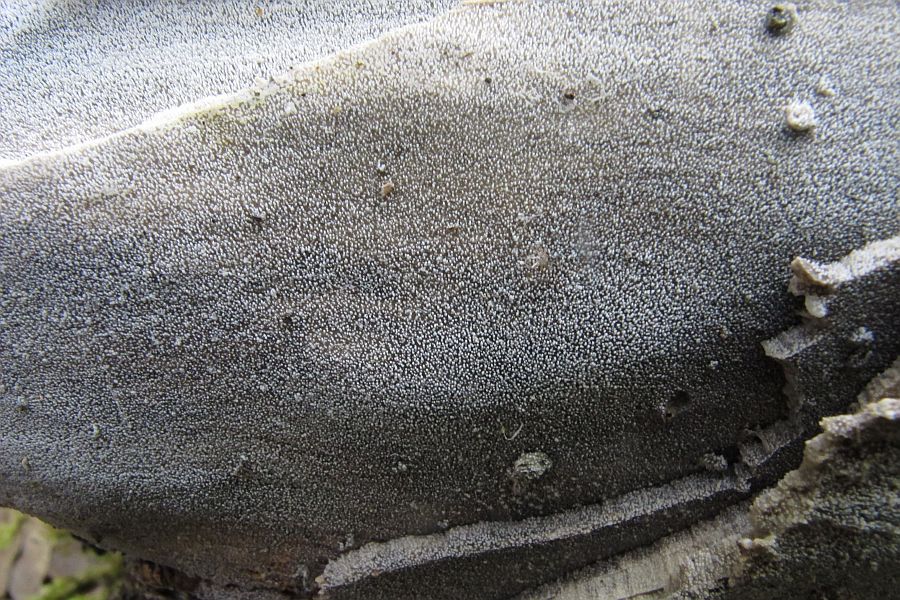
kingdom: Fungi
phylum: Basidiomycota
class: Agaricomycetes
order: Polyporales
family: Meruliaceae
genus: Scopuloides
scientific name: Scopuloides rimosa
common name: dughinde
